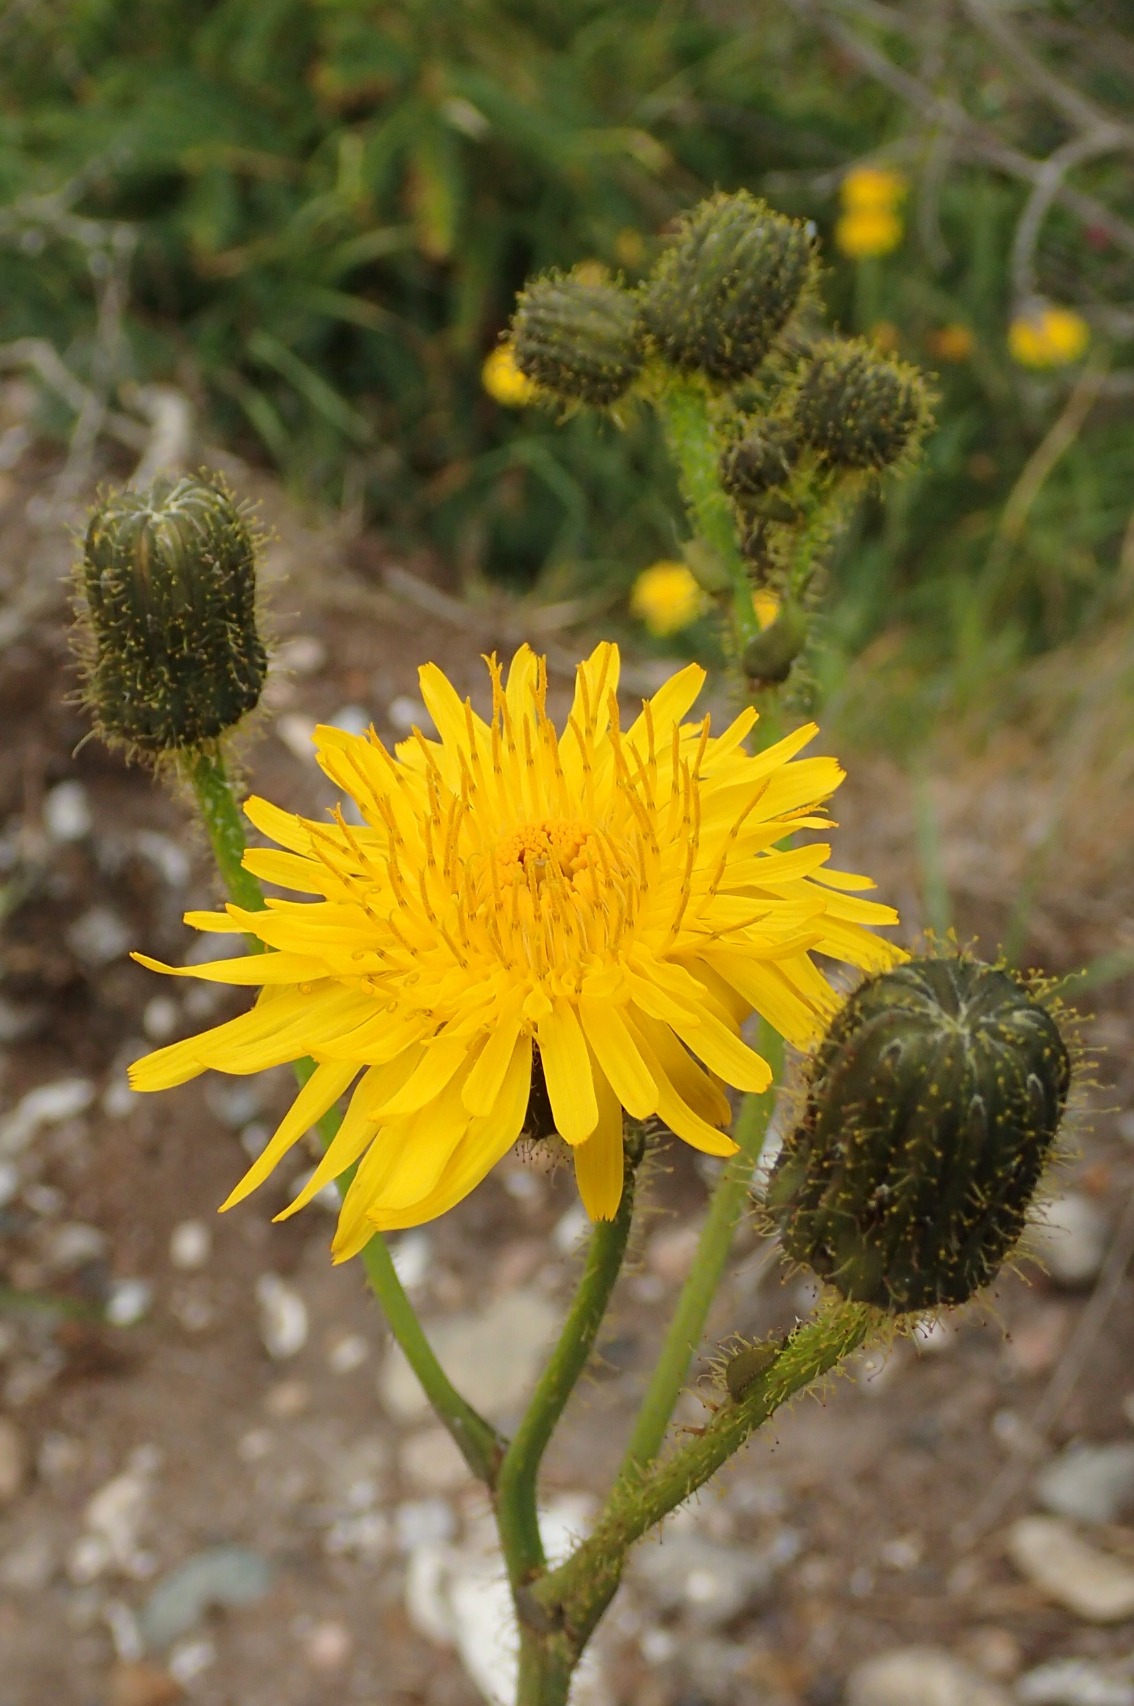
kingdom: Plantae
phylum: Tracheophyta
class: Magnoliopsida
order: Asterales
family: Asteraceae
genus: Sonchus
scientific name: Sonchus arvensis
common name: Ager-svinemælk
